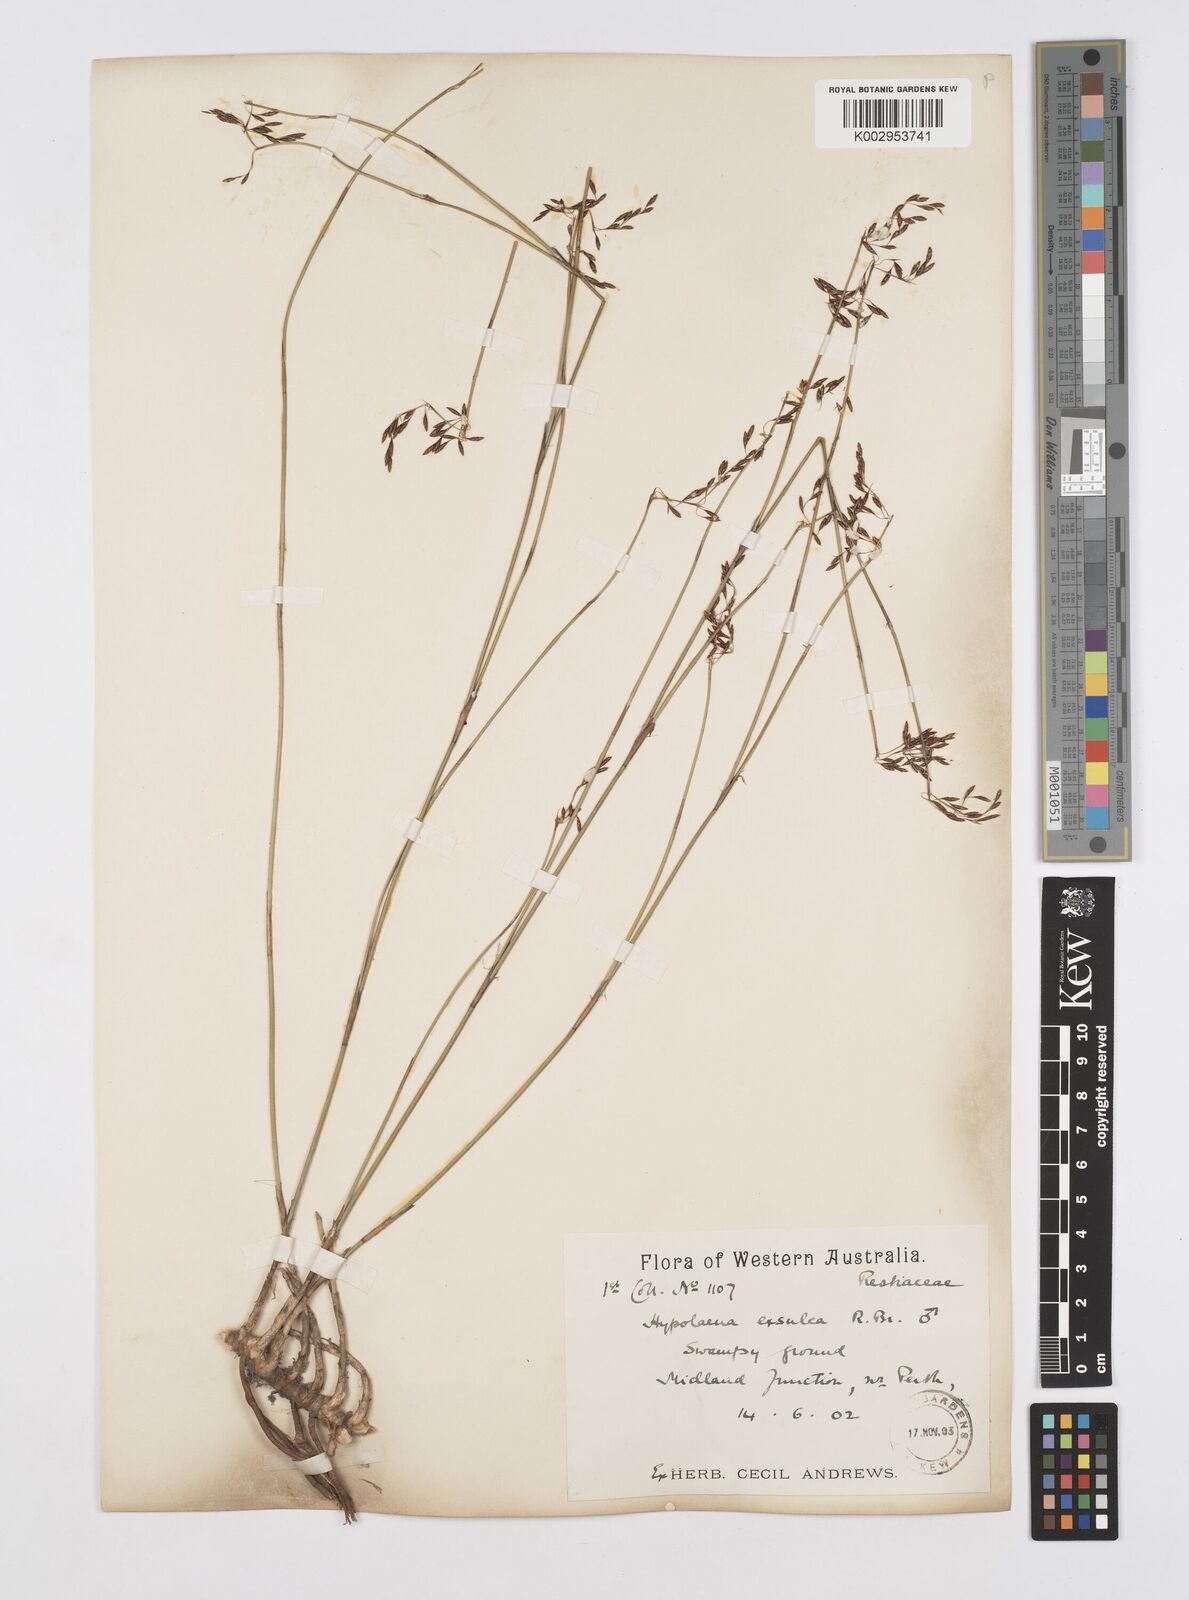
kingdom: Plantae
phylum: Tracheophyta
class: Liliopsida
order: Poales
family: Restionaceae
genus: Hypolaena
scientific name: Hypolaena exsulca
